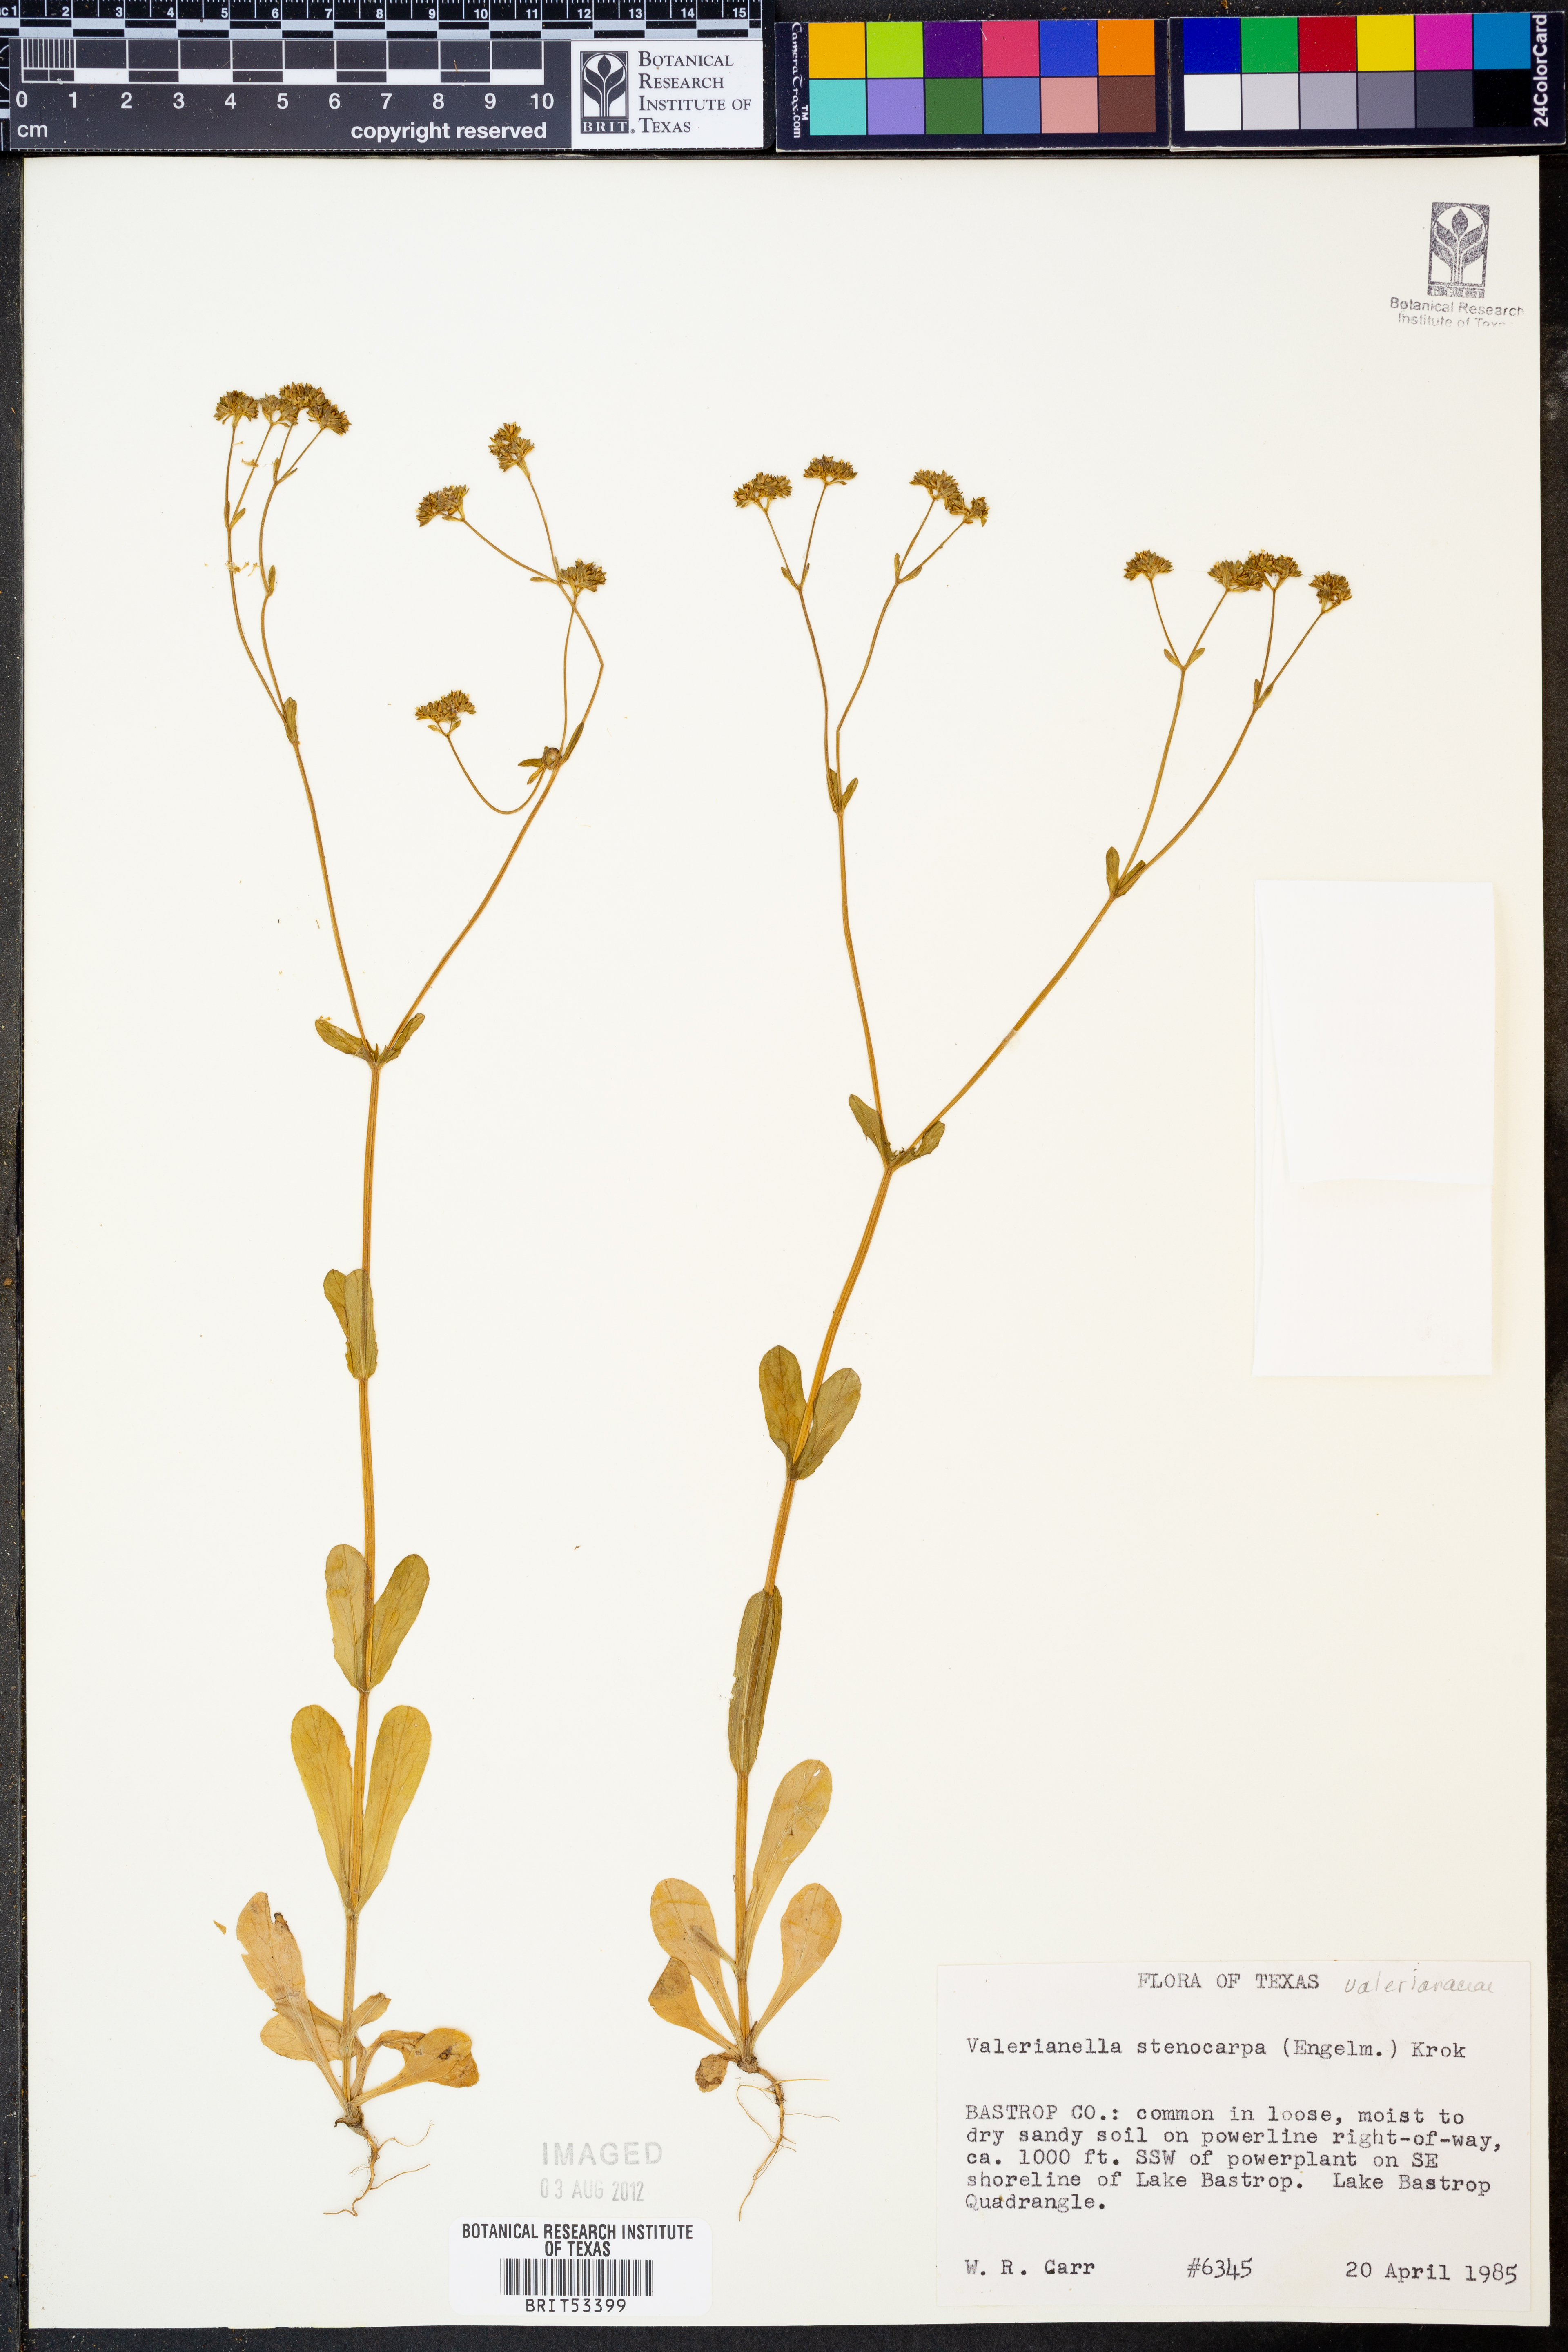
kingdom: Plantae
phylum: Tracheophyta
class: Magnoliopsida
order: Dipsacales
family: Caprifoliaceae
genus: Valerianella
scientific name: Valerianella stenocarpa
